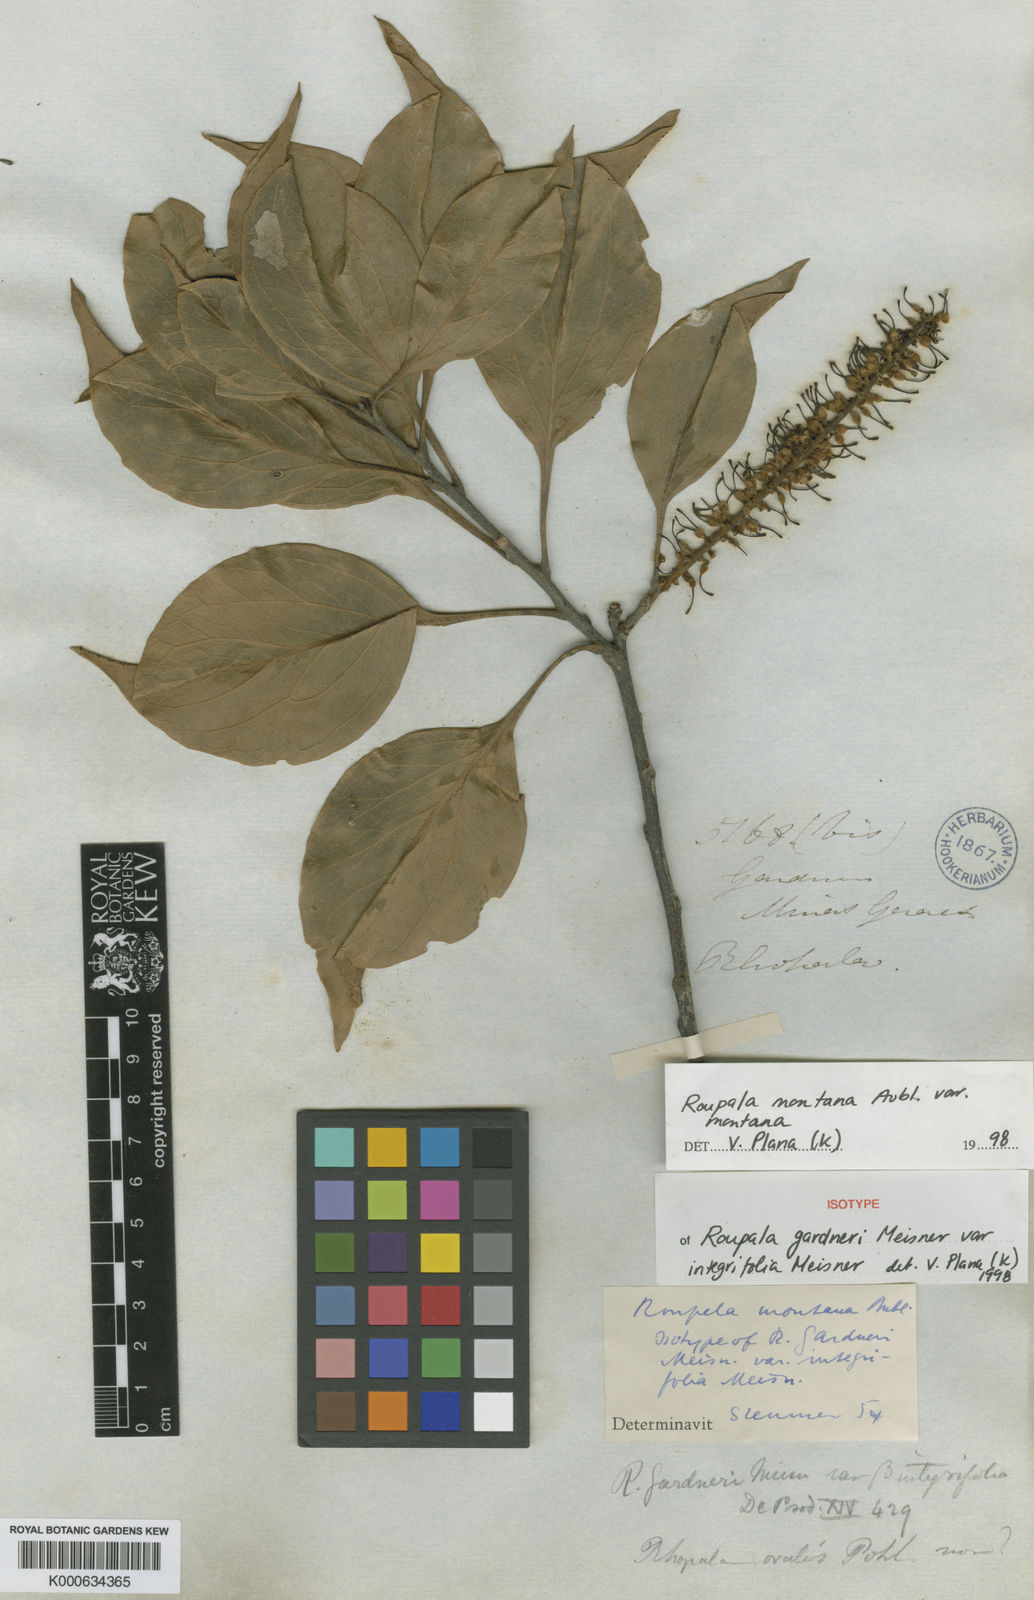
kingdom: Plantae
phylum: Tracheophyta
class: Magnoliopsida
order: Proteales
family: Proteaceae
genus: Roupala
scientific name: Roupala montana
